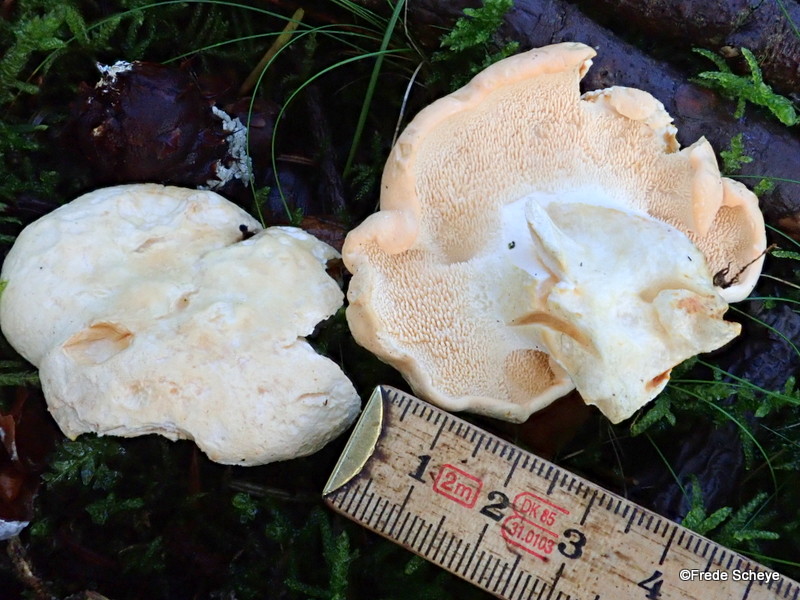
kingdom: Fungi
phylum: Basidiomycota
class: Agaricomycetes
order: Cantharellales
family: Hydnaceae
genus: Hydnum
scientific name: Hydnum repandum
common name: almindelig pigsvamp
